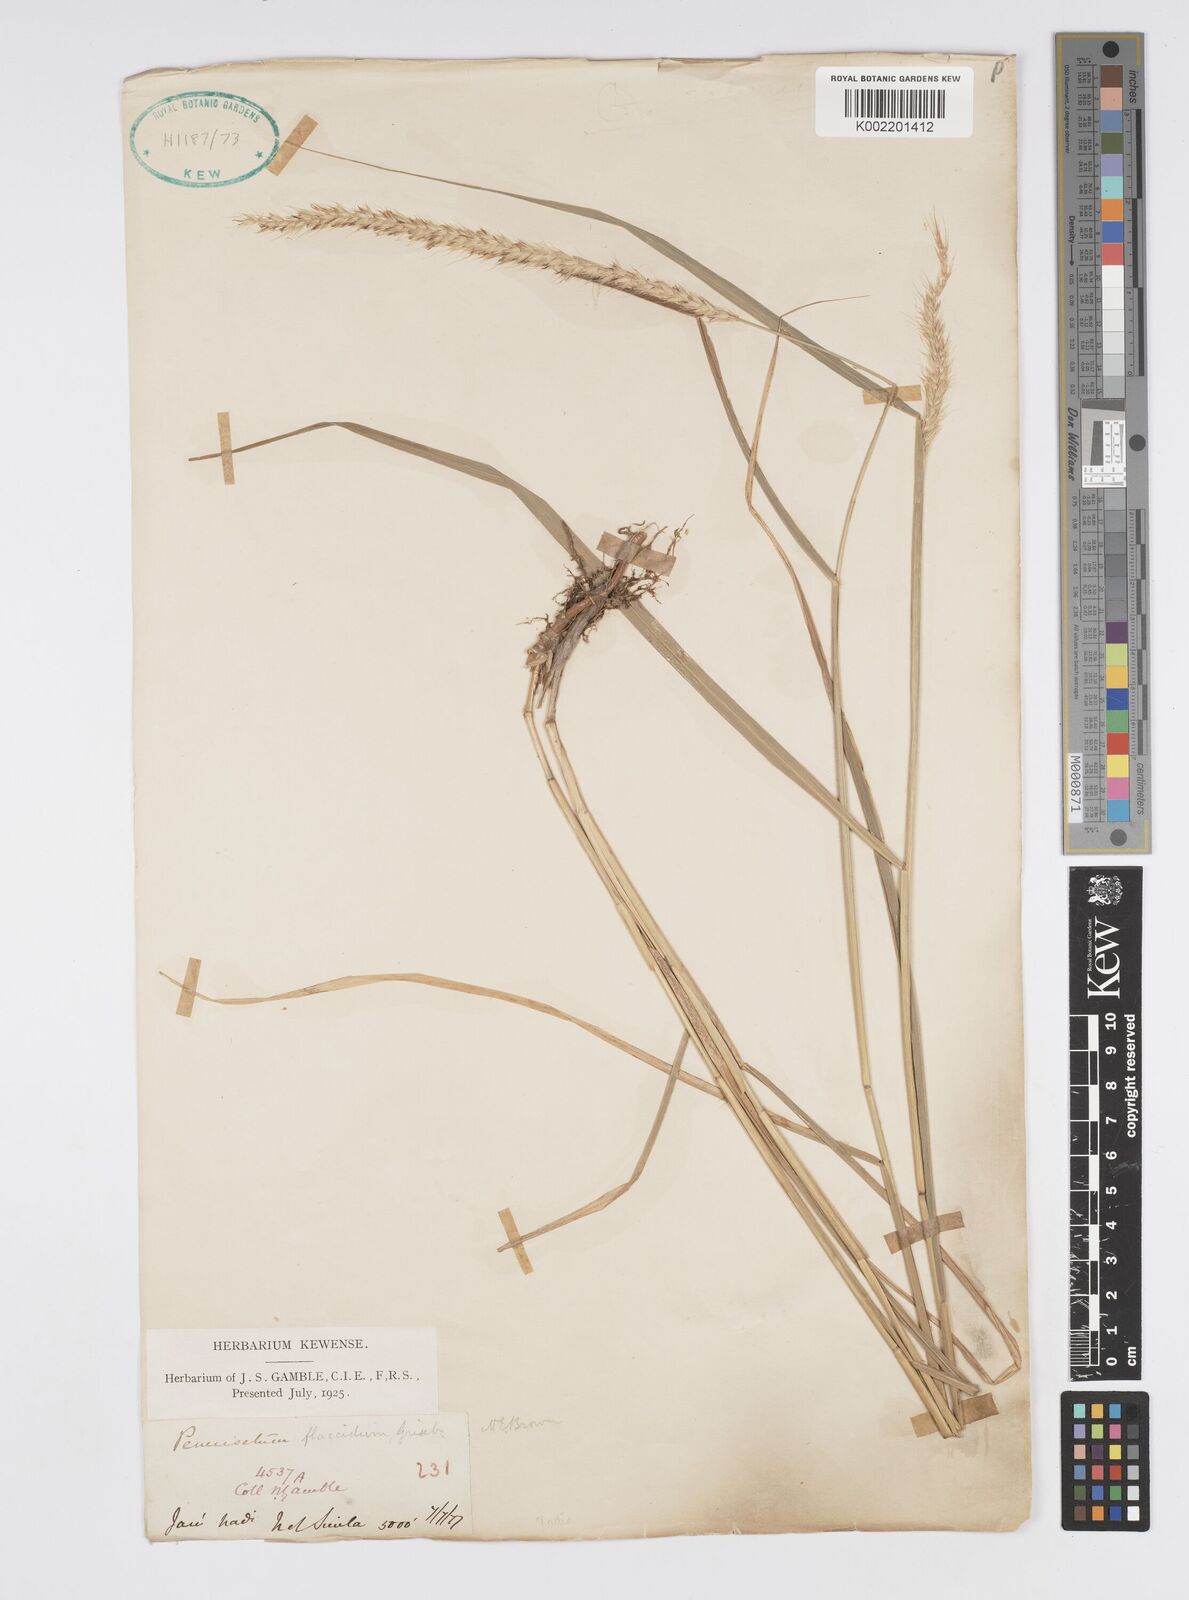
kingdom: Plantae
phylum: Tracheophyta
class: Liliopsida
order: Poales
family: Poaceae
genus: Cenchrus
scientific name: Cenchrus flaccidus
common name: Flaccid grass
